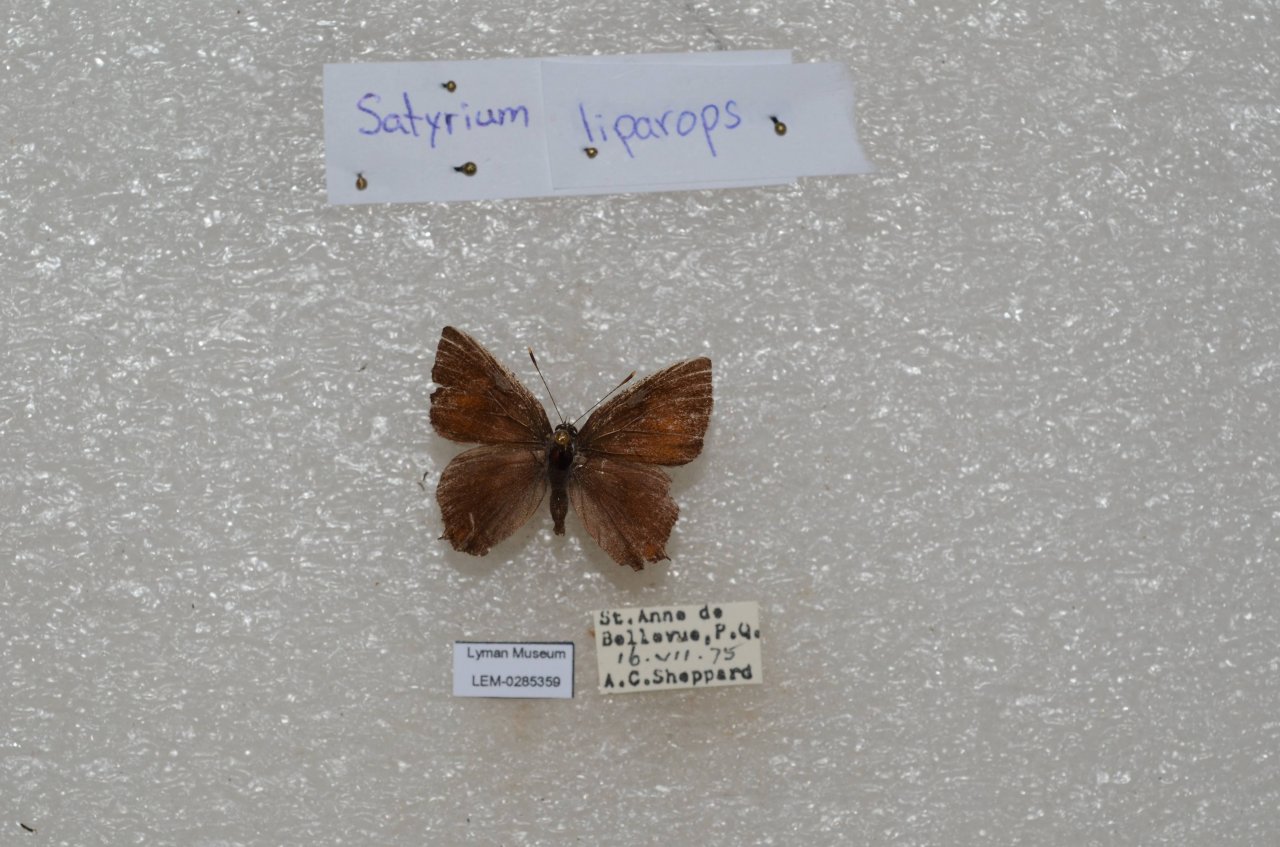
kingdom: Animalia
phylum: Arthropoda
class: Insecta
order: Lepidoptera
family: Lycaenidae
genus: Satyrium
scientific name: Satyrium liparops
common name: Striped Hairstreak
